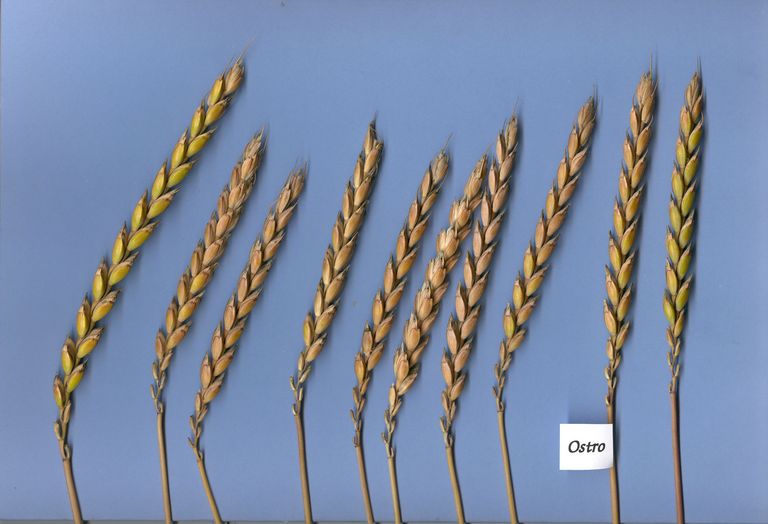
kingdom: Plantae
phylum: Tracheophyta
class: Liliopsida
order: Poales
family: Poaceae
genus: Triticum
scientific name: Triticum aestivum
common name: Common wheat
